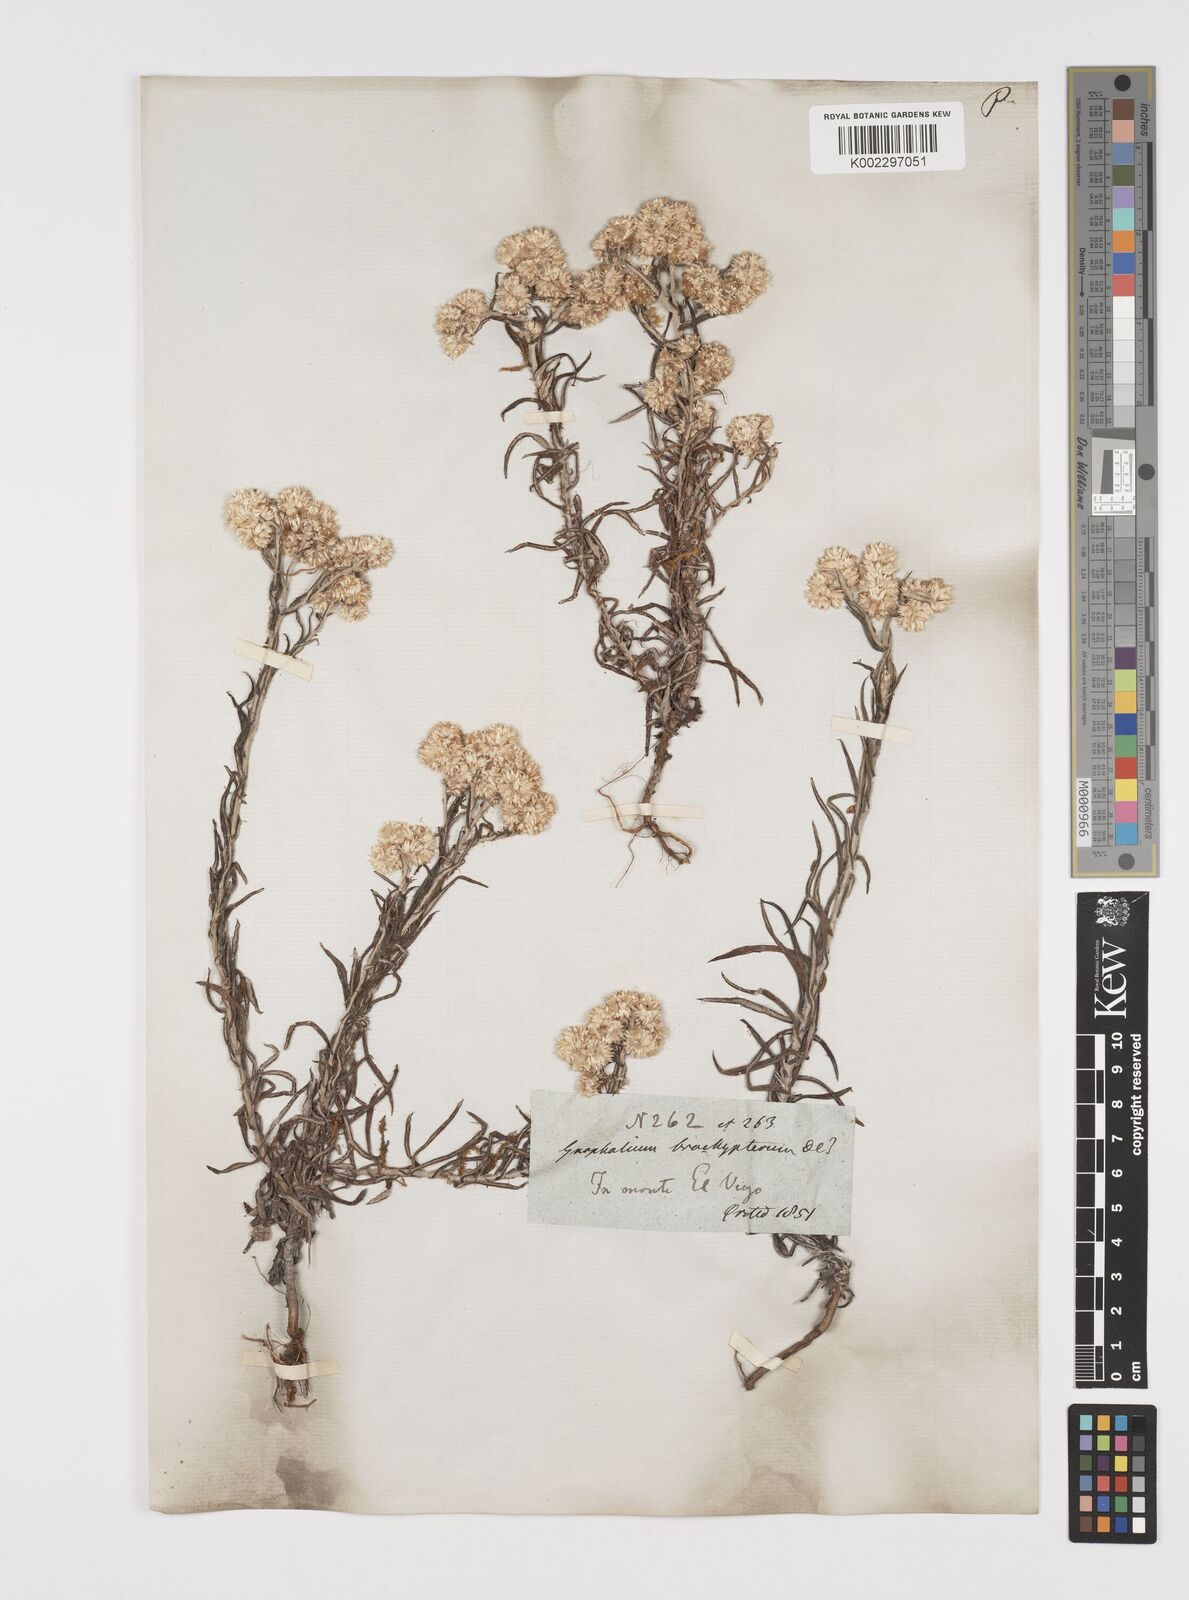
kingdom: Plantae
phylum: Tracheophyta
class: Magnoliopsida
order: Asterales
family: Asteraceae
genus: Pseudognaphalium
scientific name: Pseudognaphalium brachypterum
